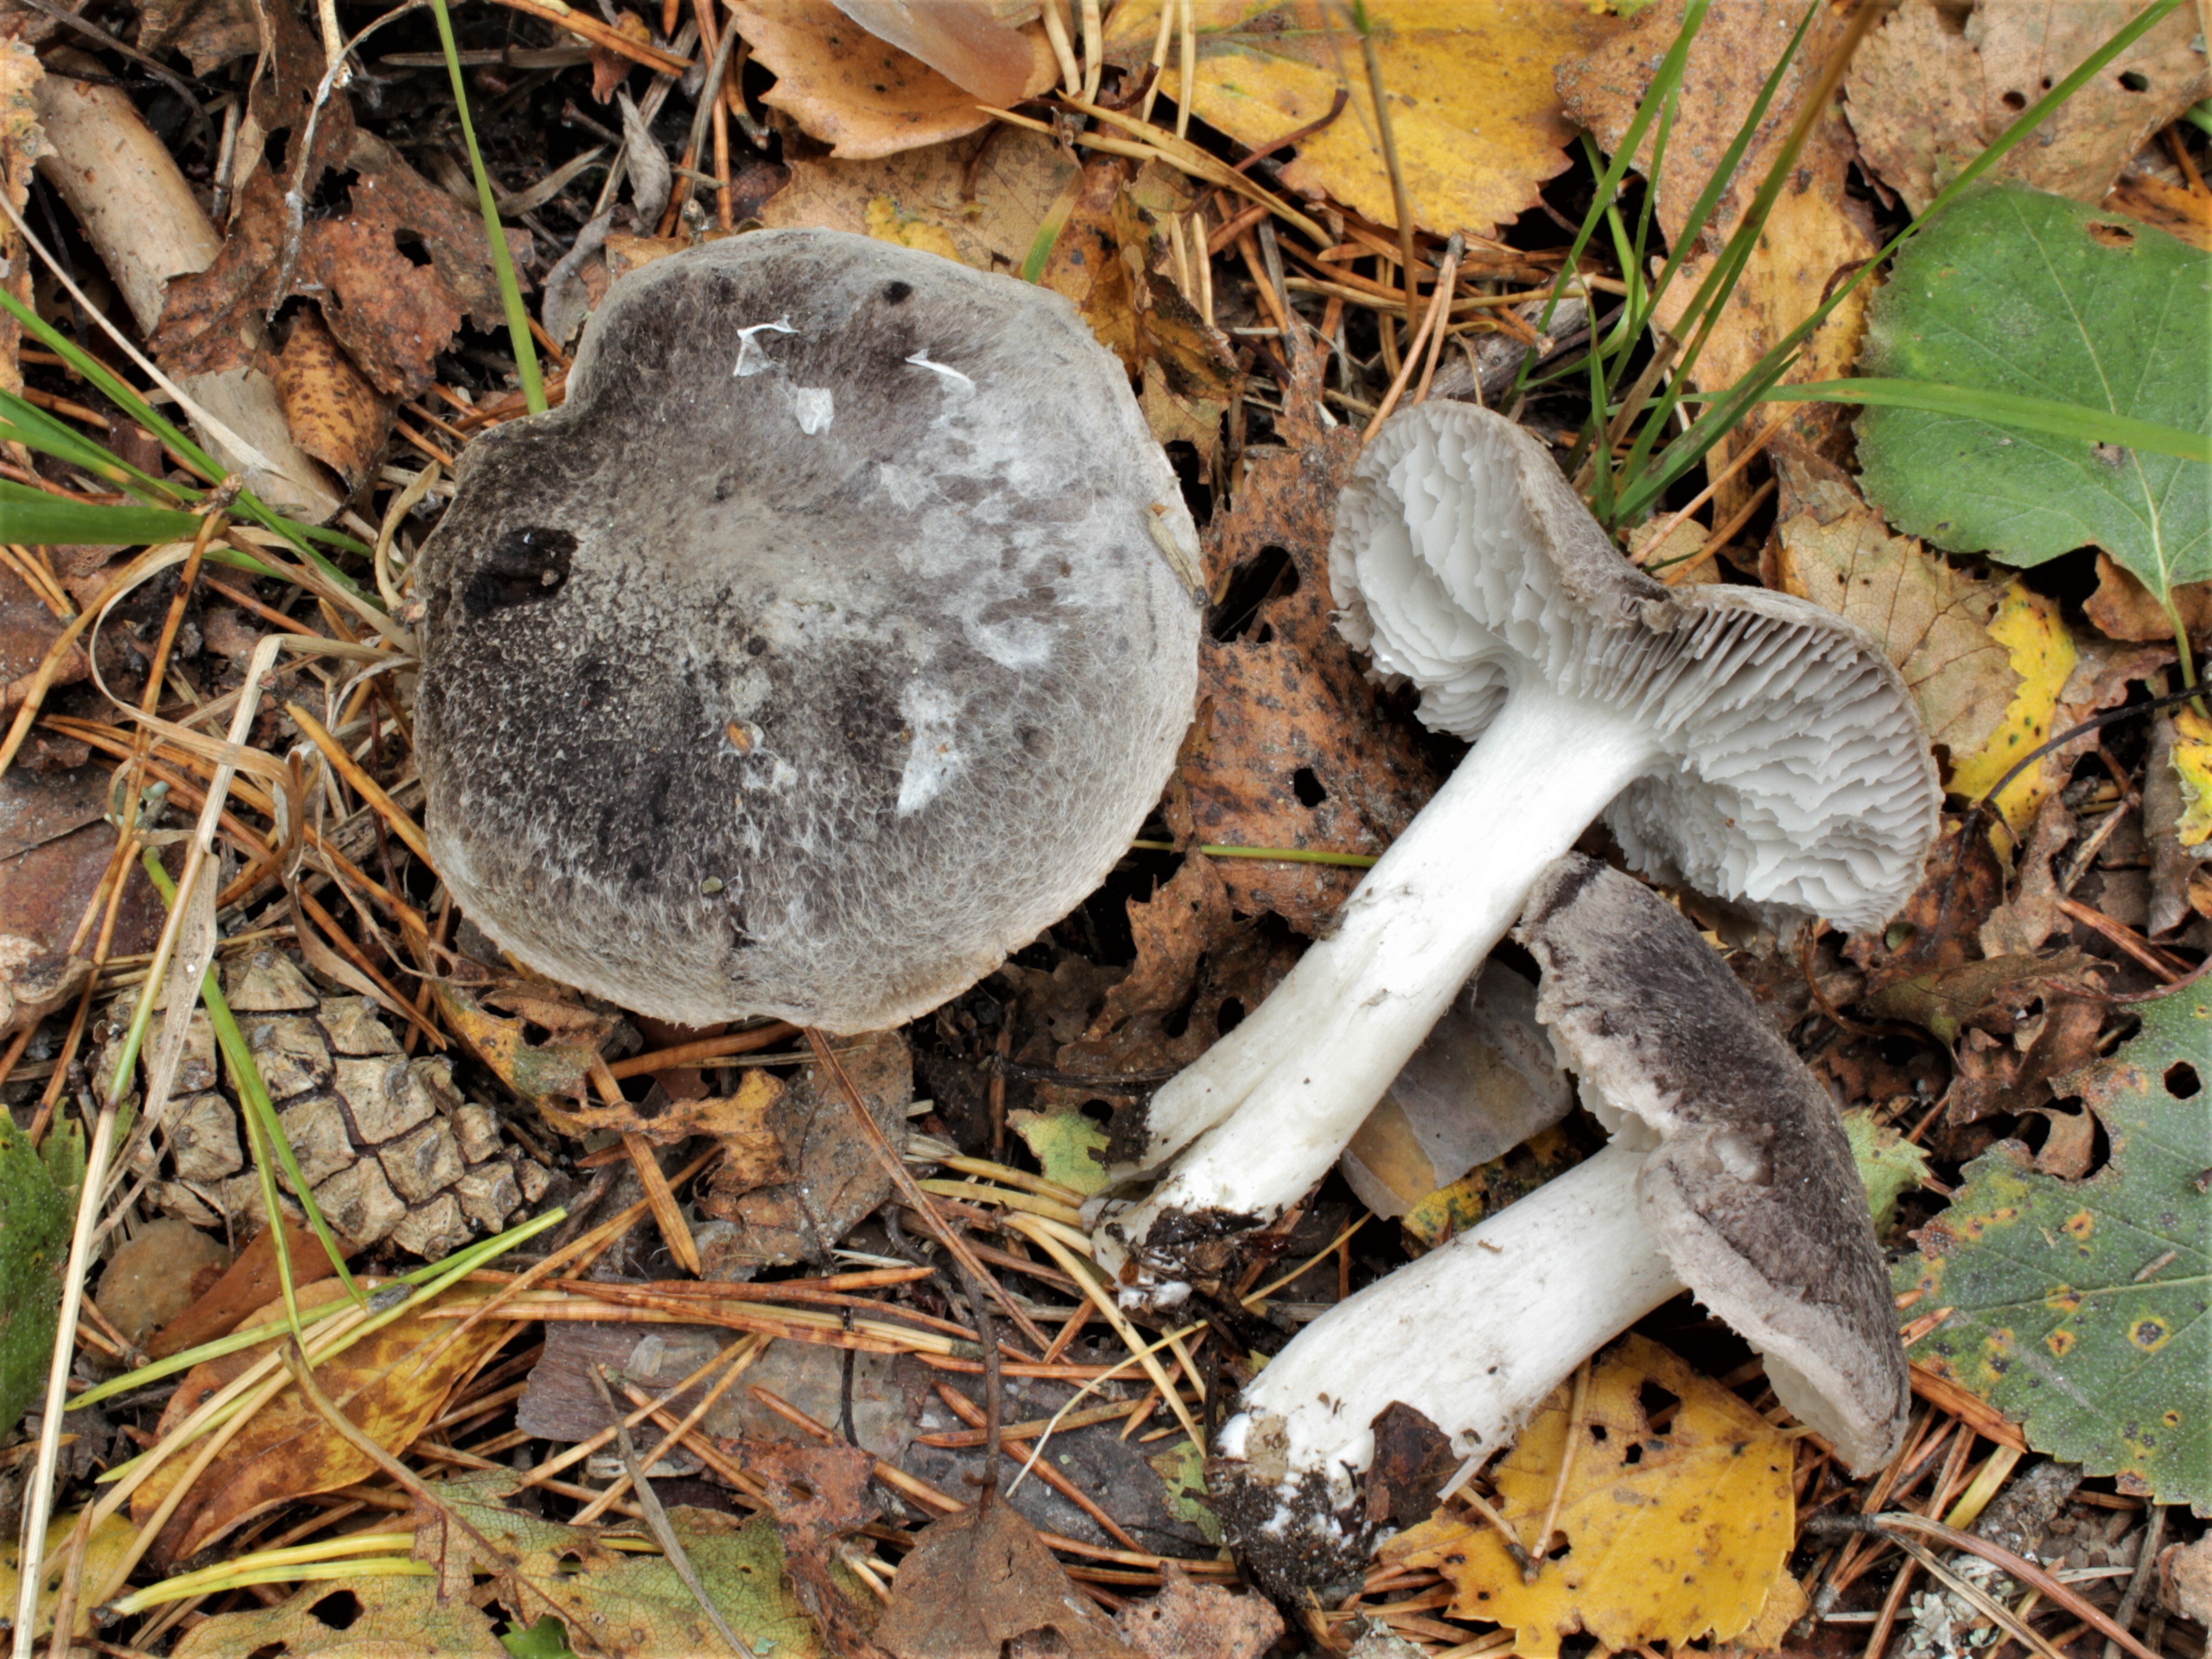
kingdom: Fungi
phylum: Basidiomycota
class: Agaricomycetes
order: Agaricales
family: Tricholomataceae
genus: Tricholoma
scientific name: Tricholoma terreum
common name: Grey knight
